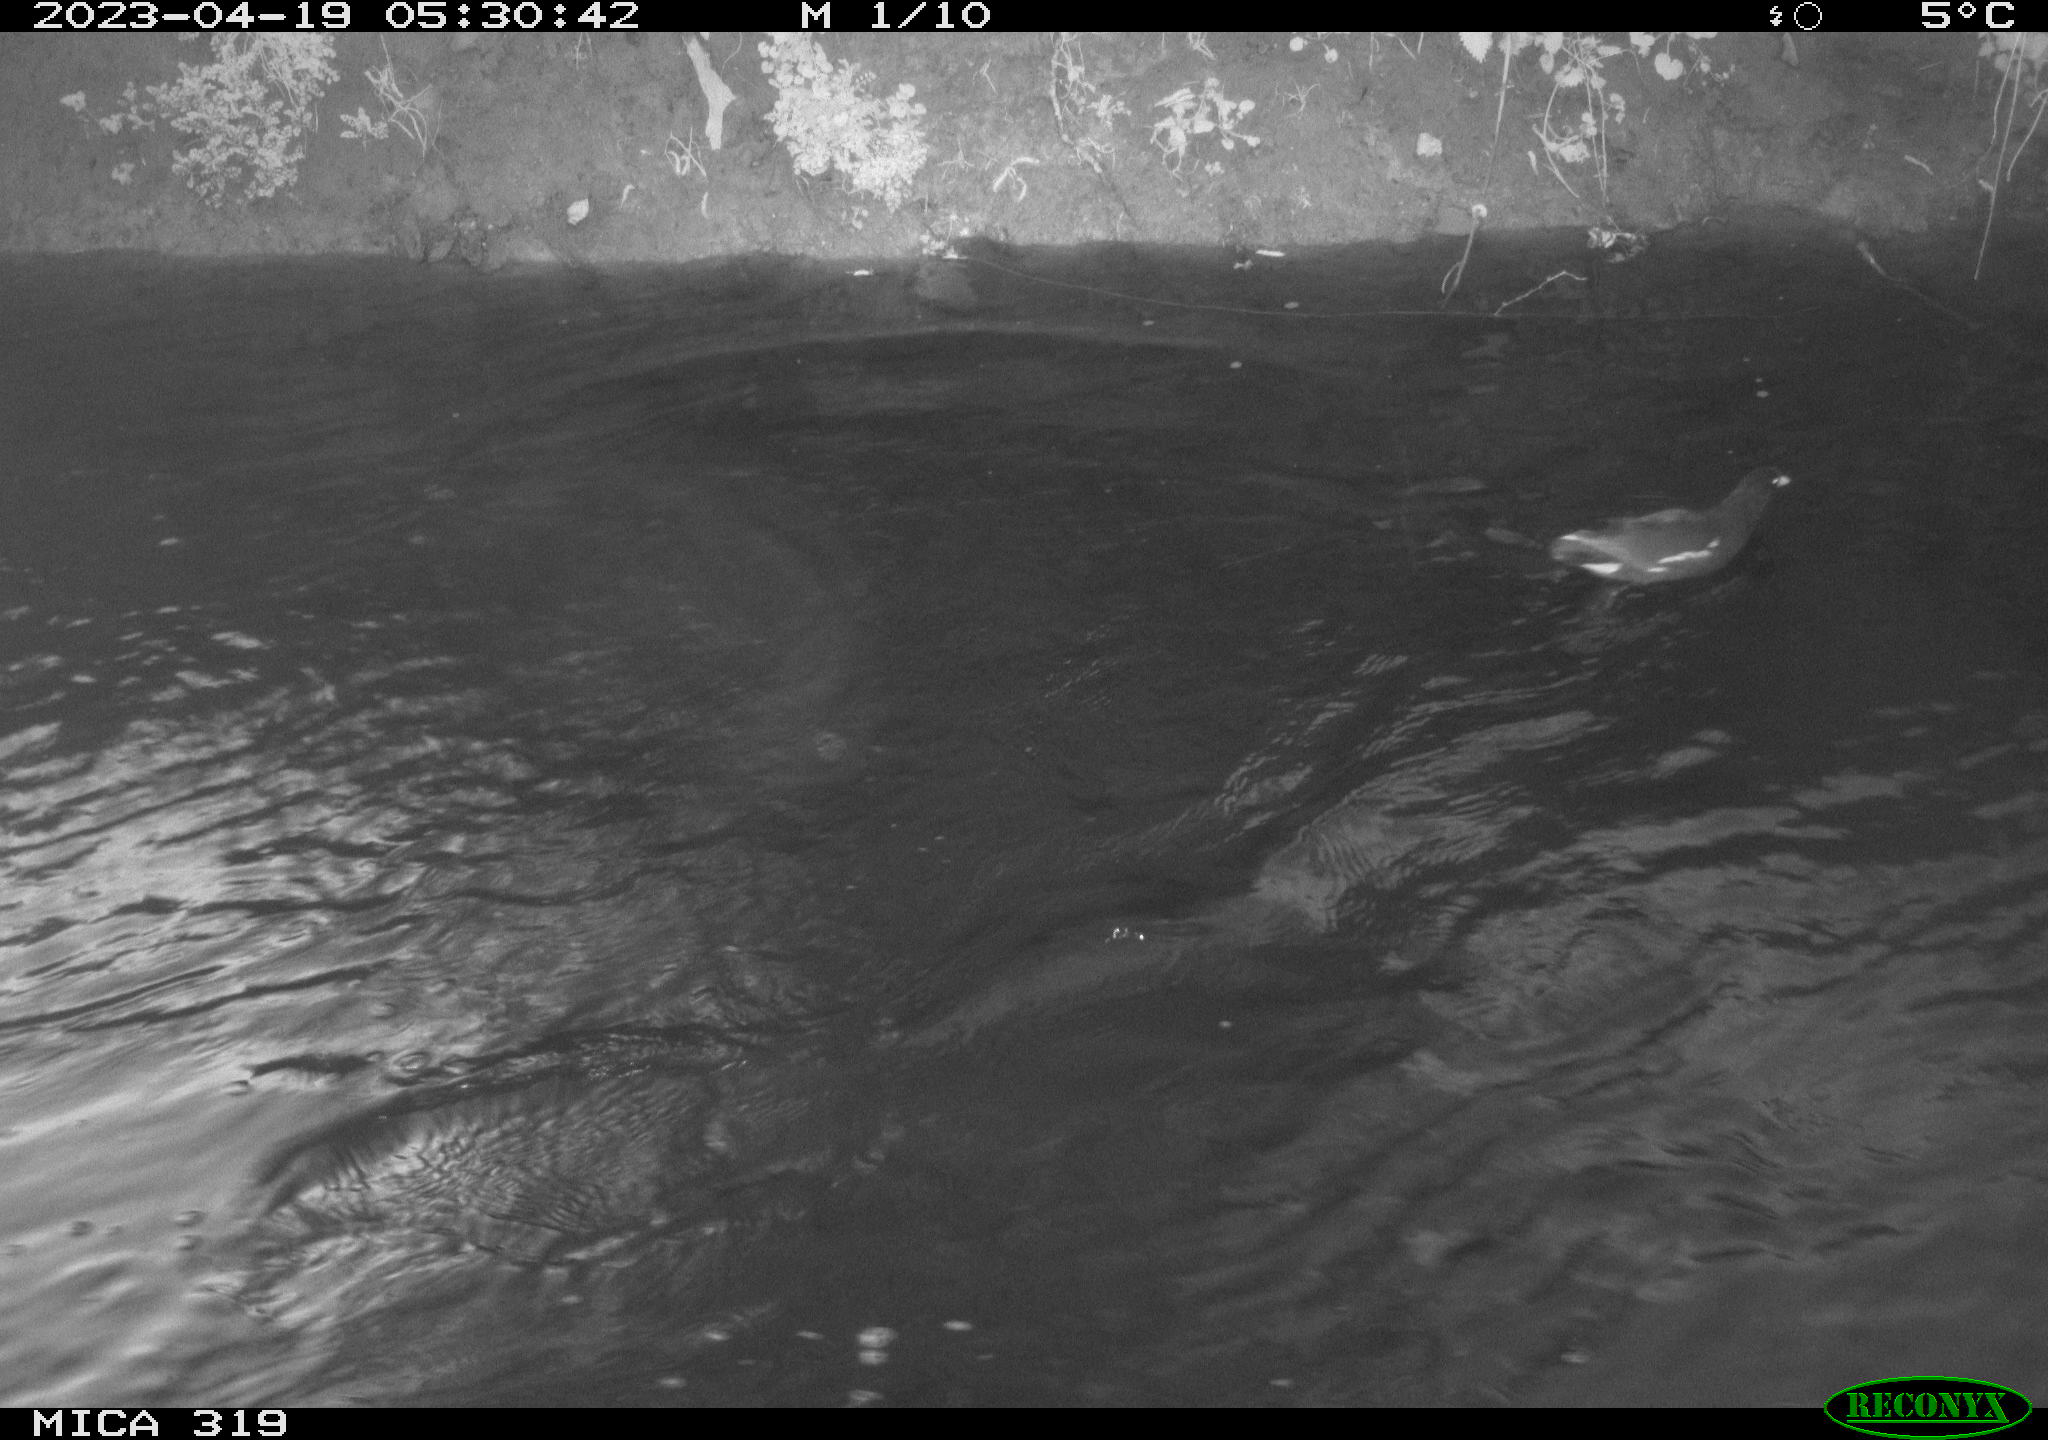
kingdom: Animalia
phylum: Chordata
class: Aves
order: Gruiformes
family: Rallidae
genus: Gallinula
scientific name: Gallinula chloropus
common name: Common moorhen
